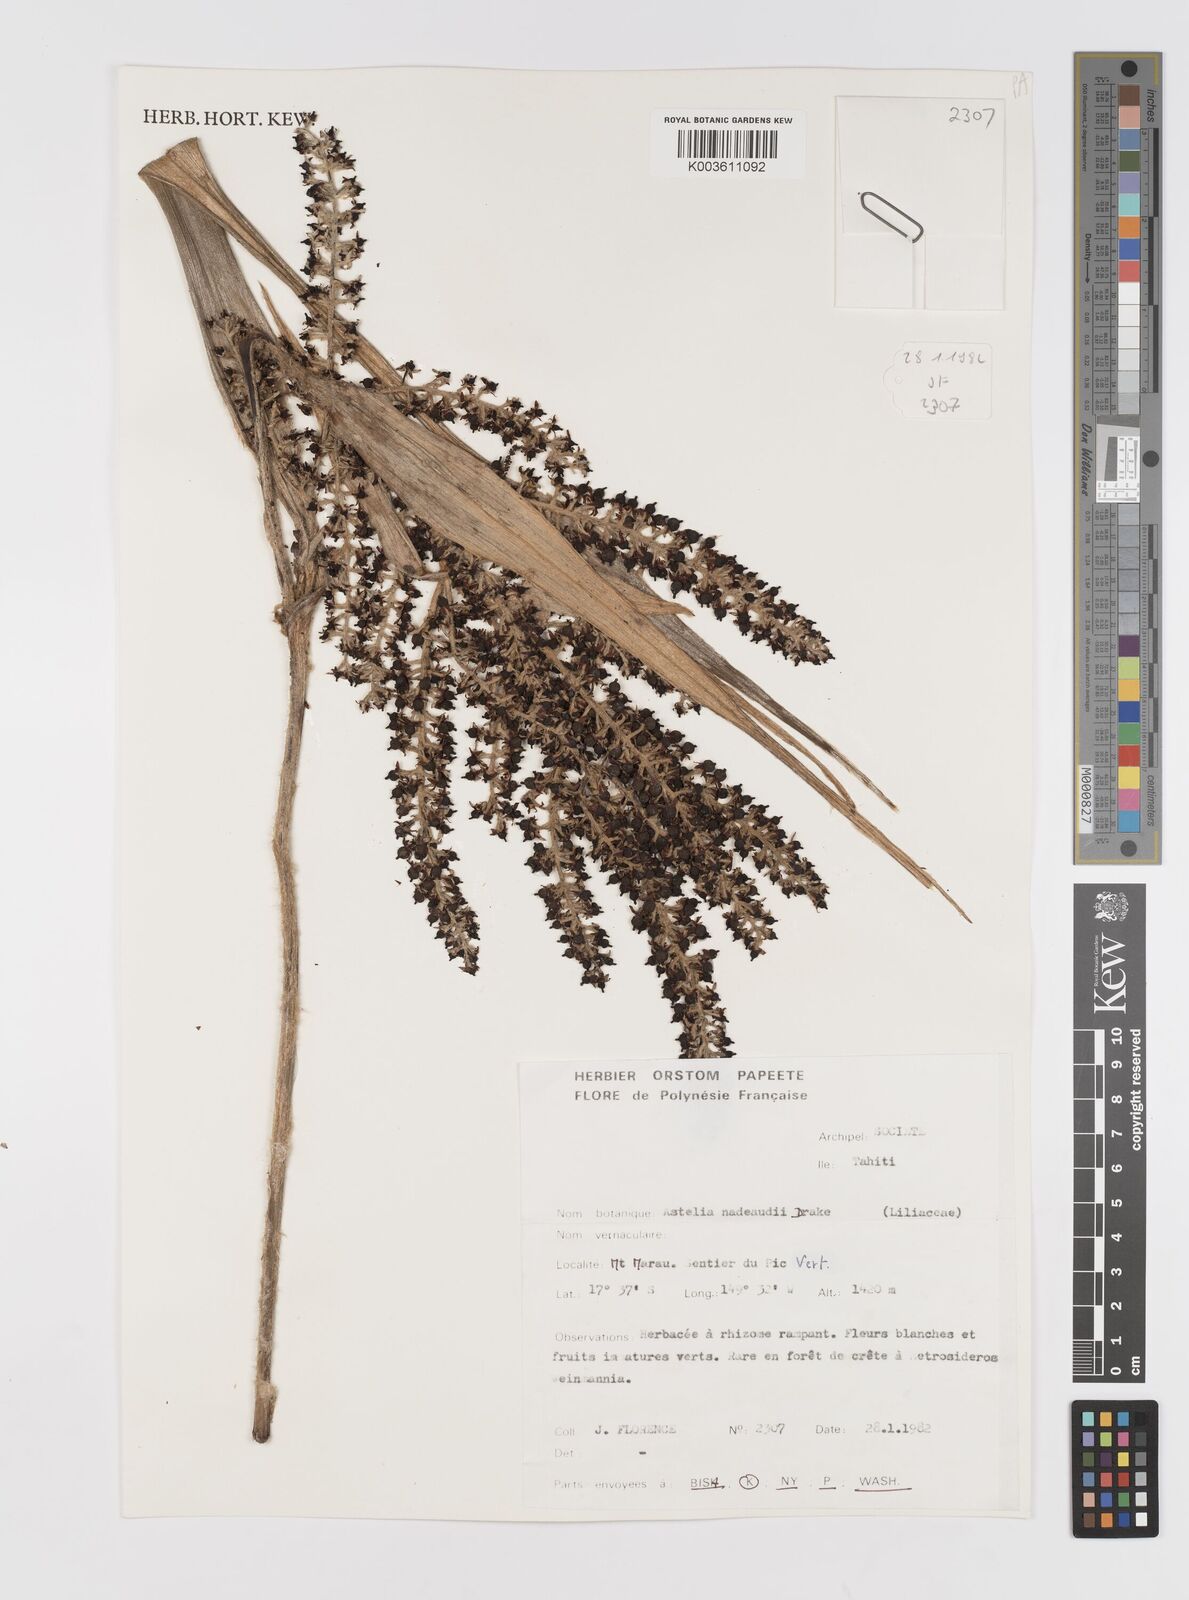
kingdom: Plantae
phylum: Tracheophyta
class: Liliopsida
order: Asparagales
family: Asteliaceae
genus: Astelia
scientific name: Astelia nadeaudii
